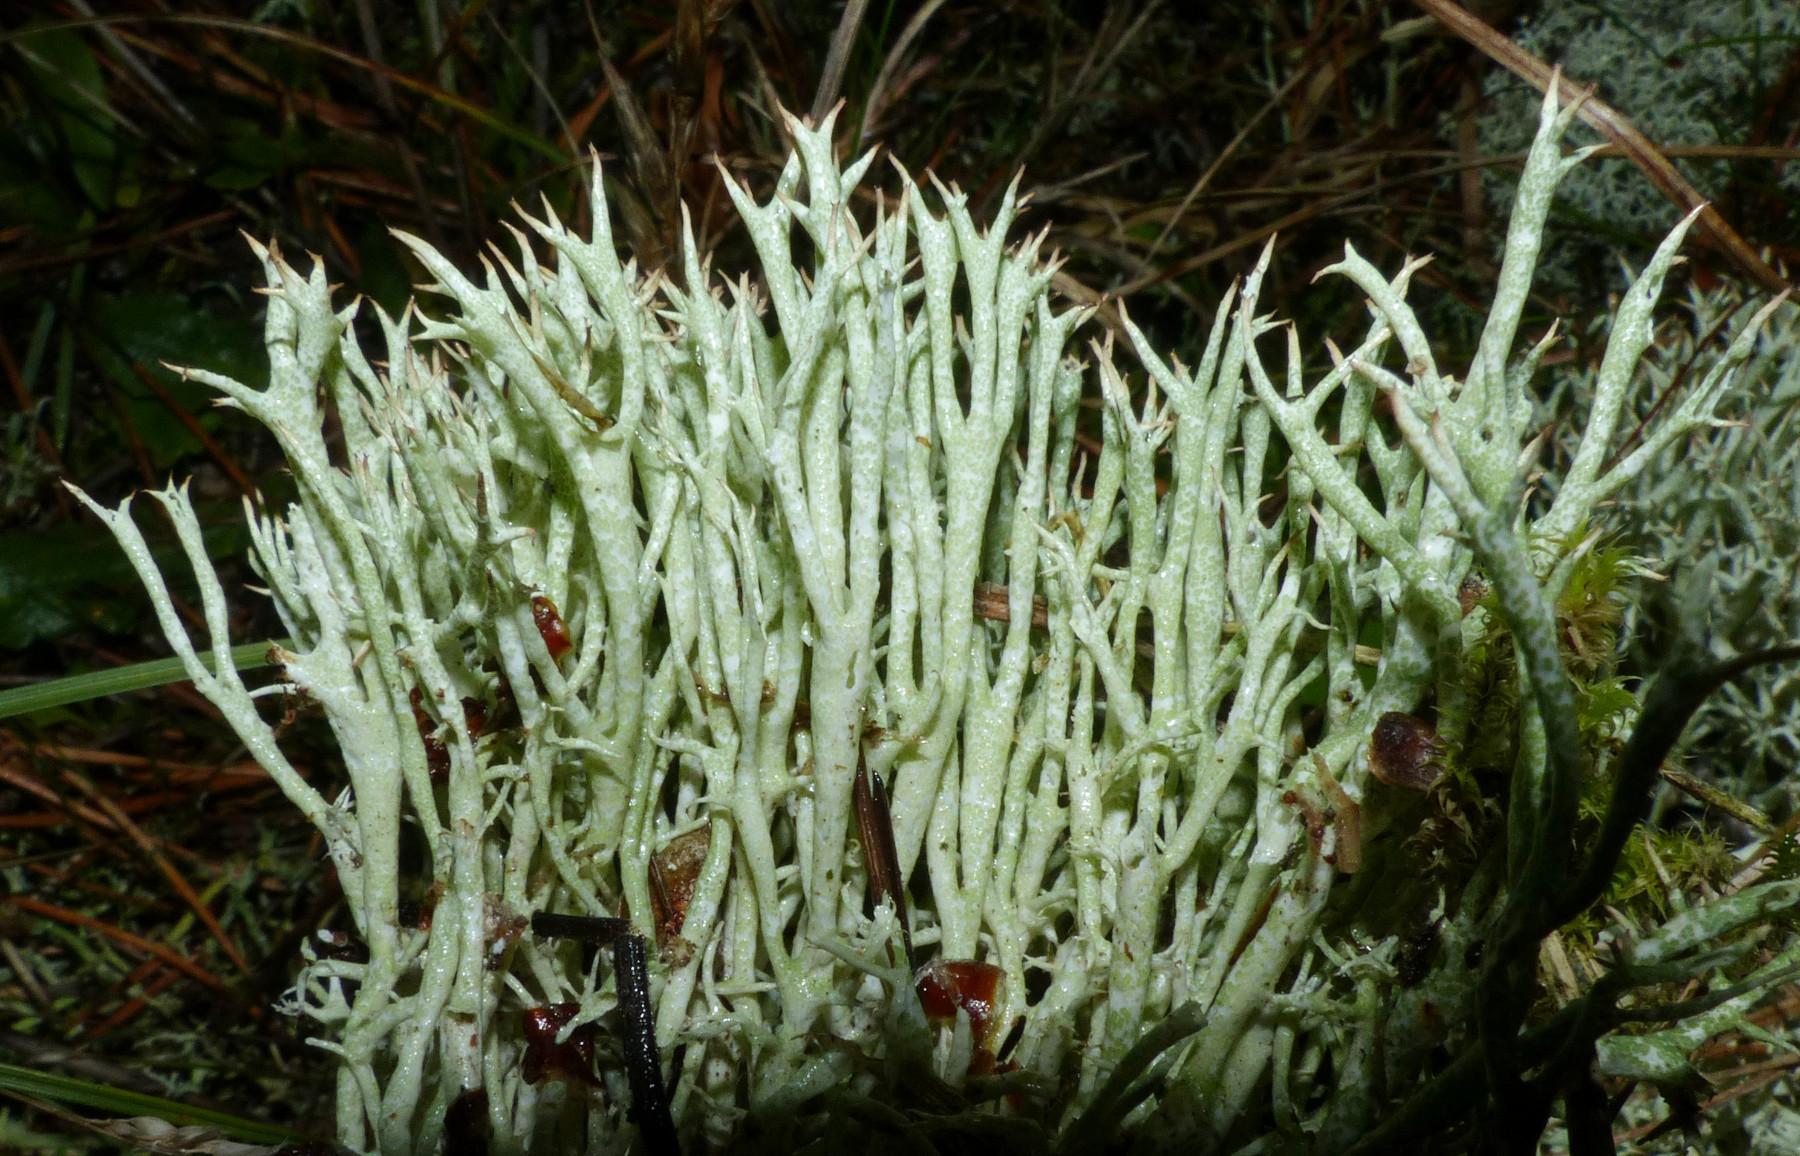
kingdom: Fungi
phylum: Ascomycota
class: Lecanoromycetes
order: Lecanorales
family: Cladoniaceae
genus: Cladonia
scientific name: Cladonia uncialis
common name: pigget bægerlav
